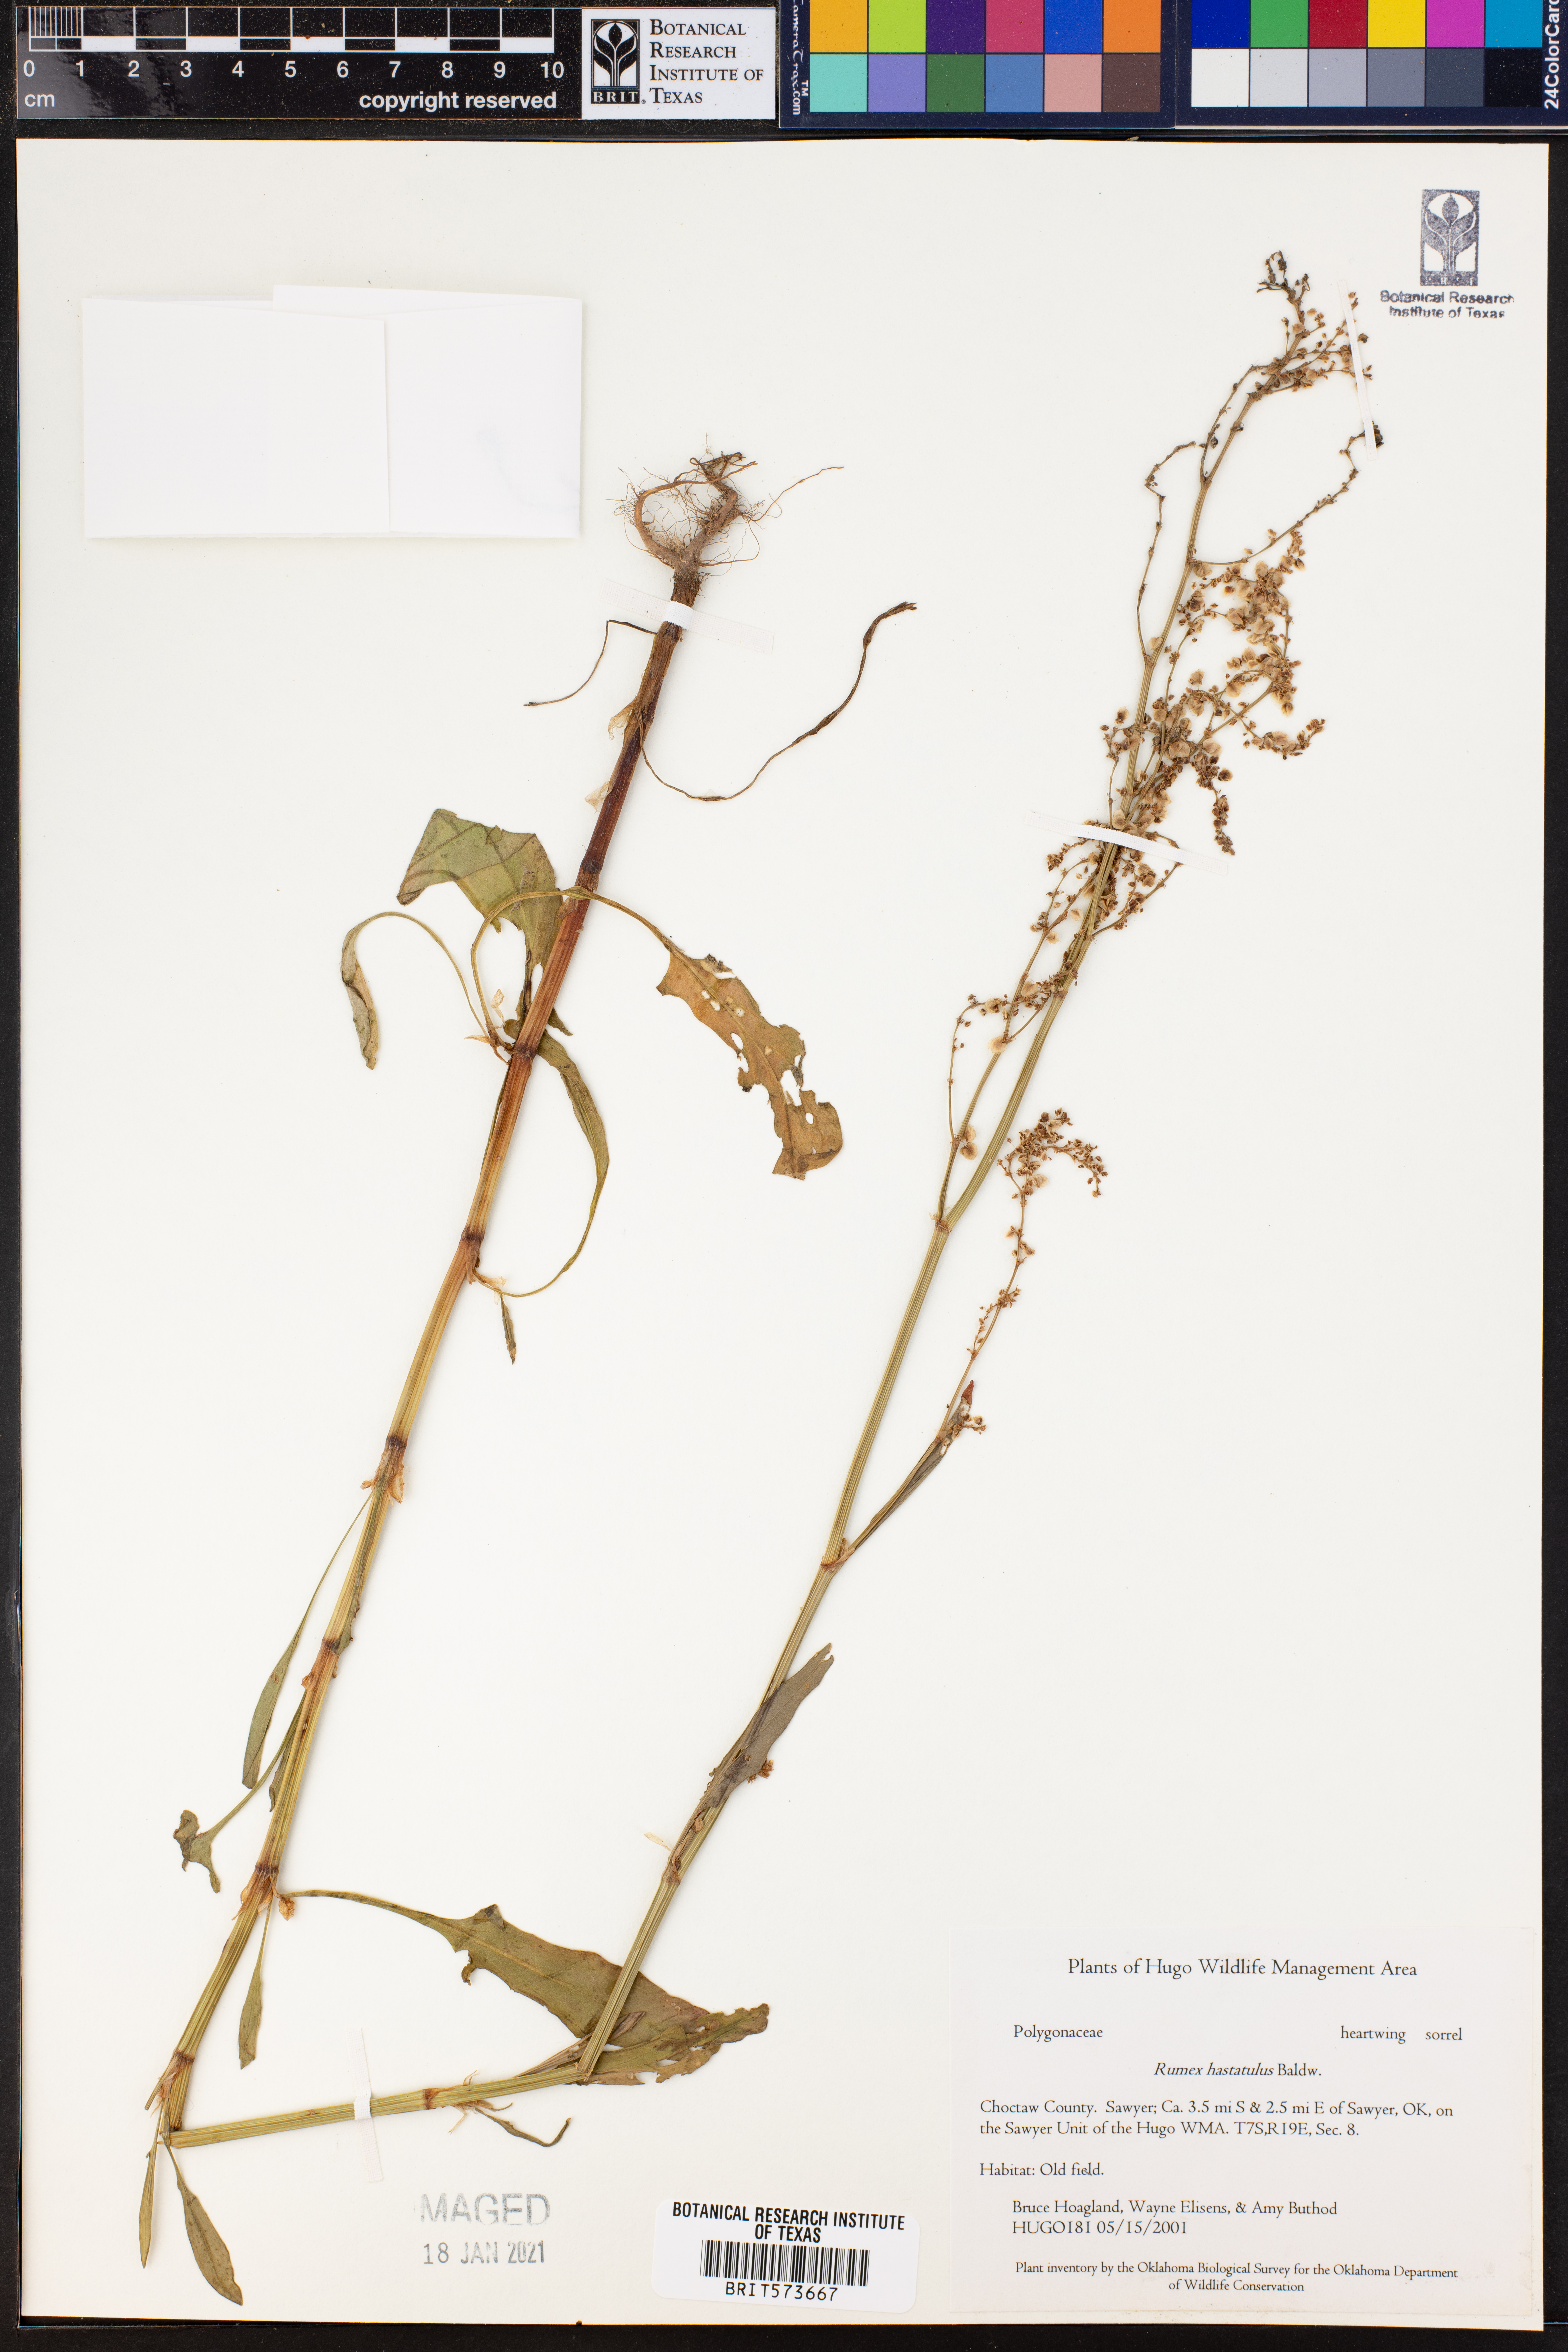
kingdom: Plantae
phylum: Tracheophyta
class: Magnoliopsida
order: Caryophyllales
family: Polygonaceae
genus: Rumex
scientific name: Rumex hastatulus
